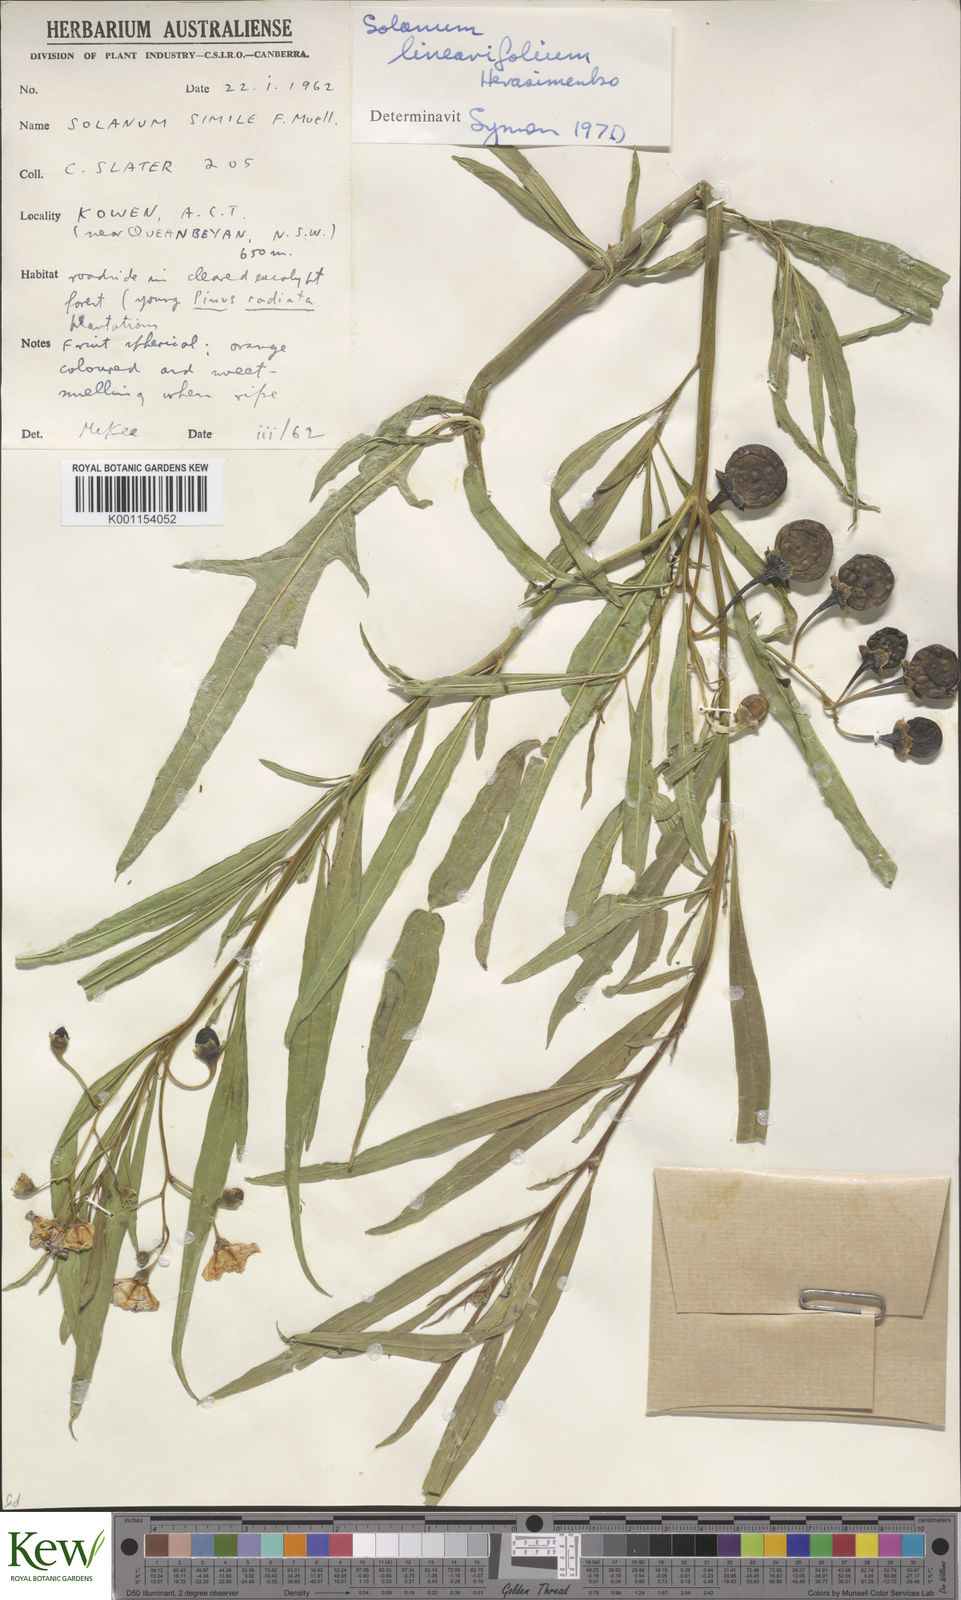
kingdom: Plantae
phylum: Tracheophyta
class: Magnoliopsida
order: Solanales
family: Solanaceae
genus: Solanum
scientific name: Solanum linearifolium
